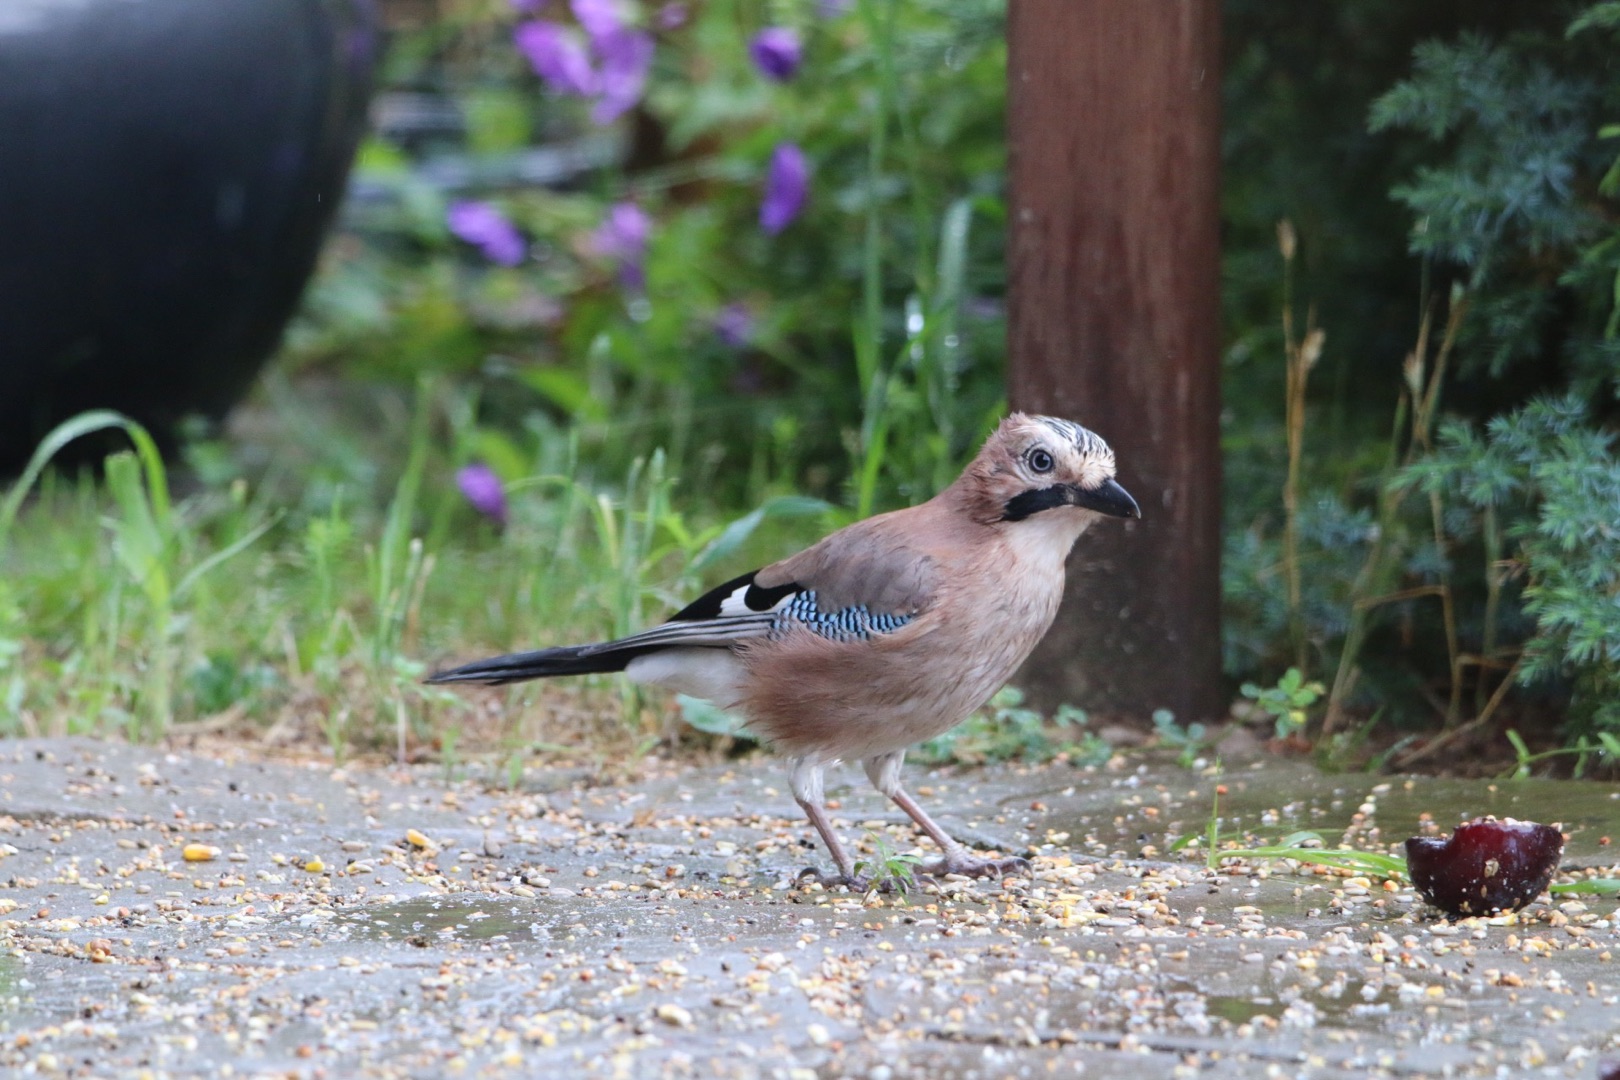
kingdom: Animalia
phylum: Chordata
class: Aves
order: Passeriformes
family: Corvidae
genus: Garrulus
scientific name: Garrulus glandarius
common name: Skovskade
